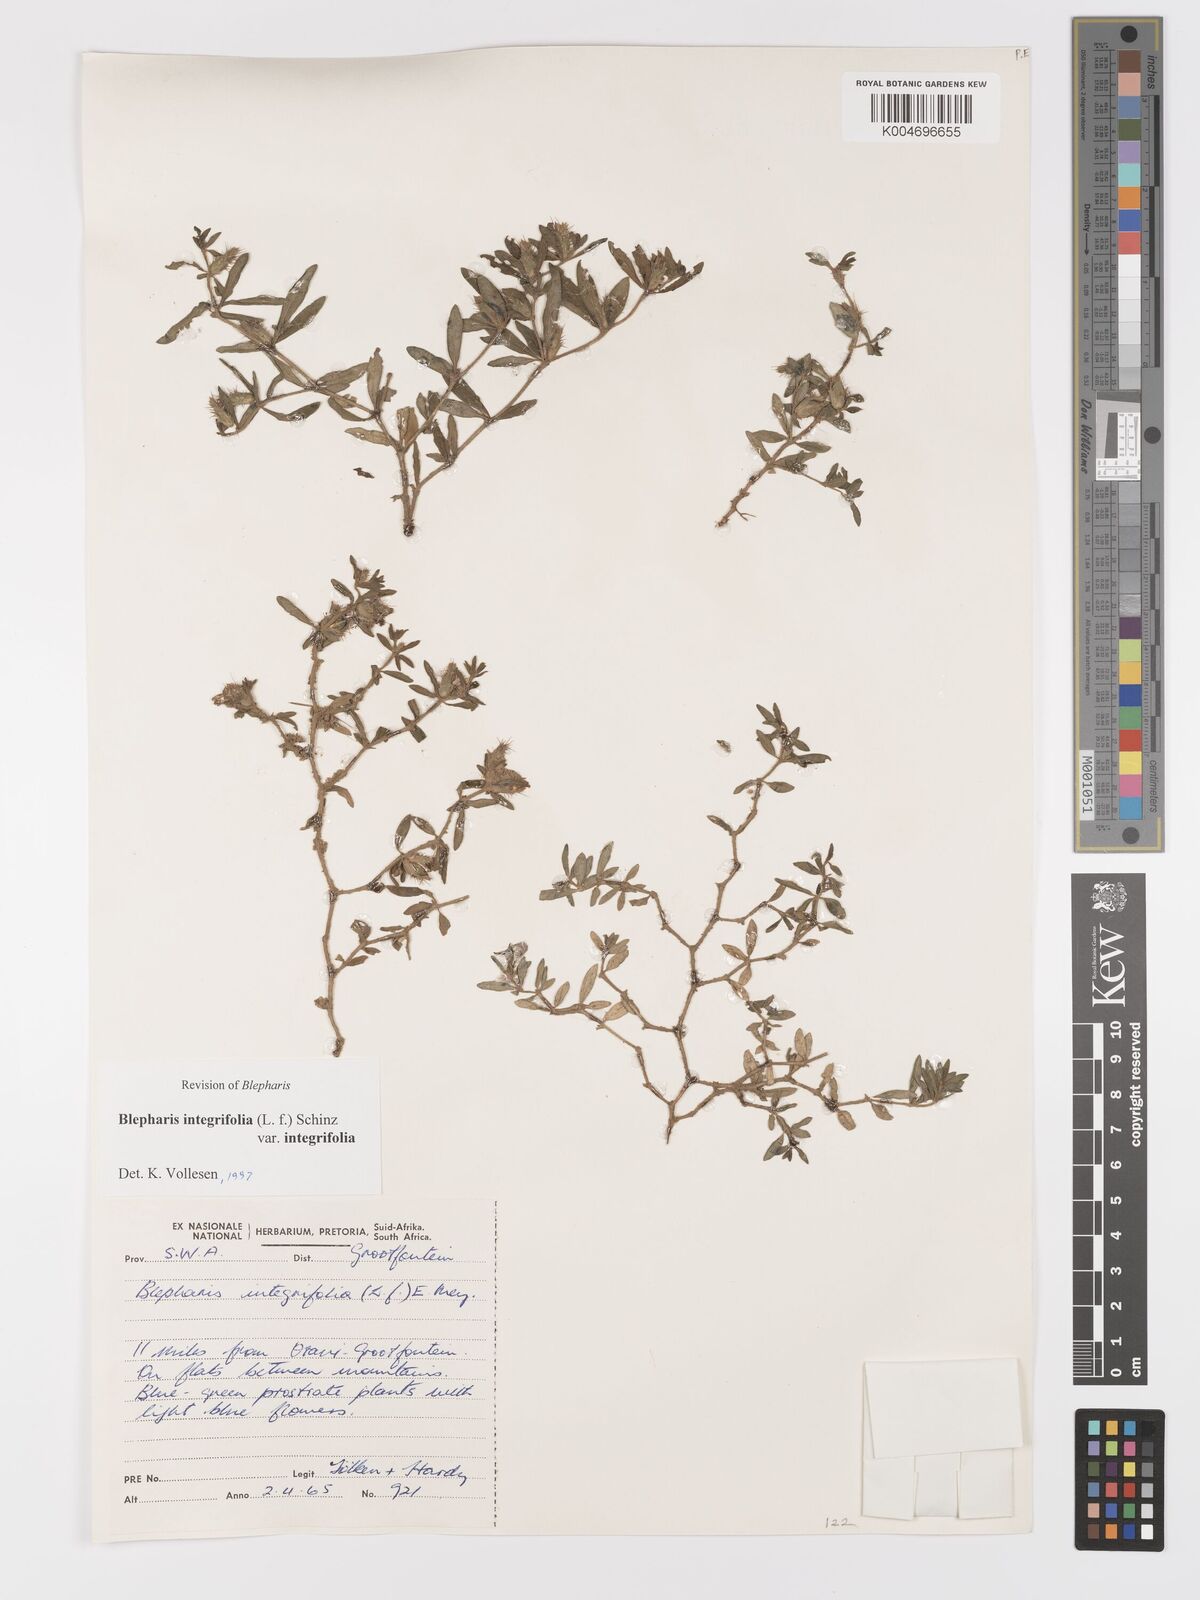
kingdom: Plantae
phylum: Tracheophyta
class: Magnoliopsida
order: Lamiales
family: Acanthaceae
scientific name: Acanthaceae
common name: Acanthaceae
